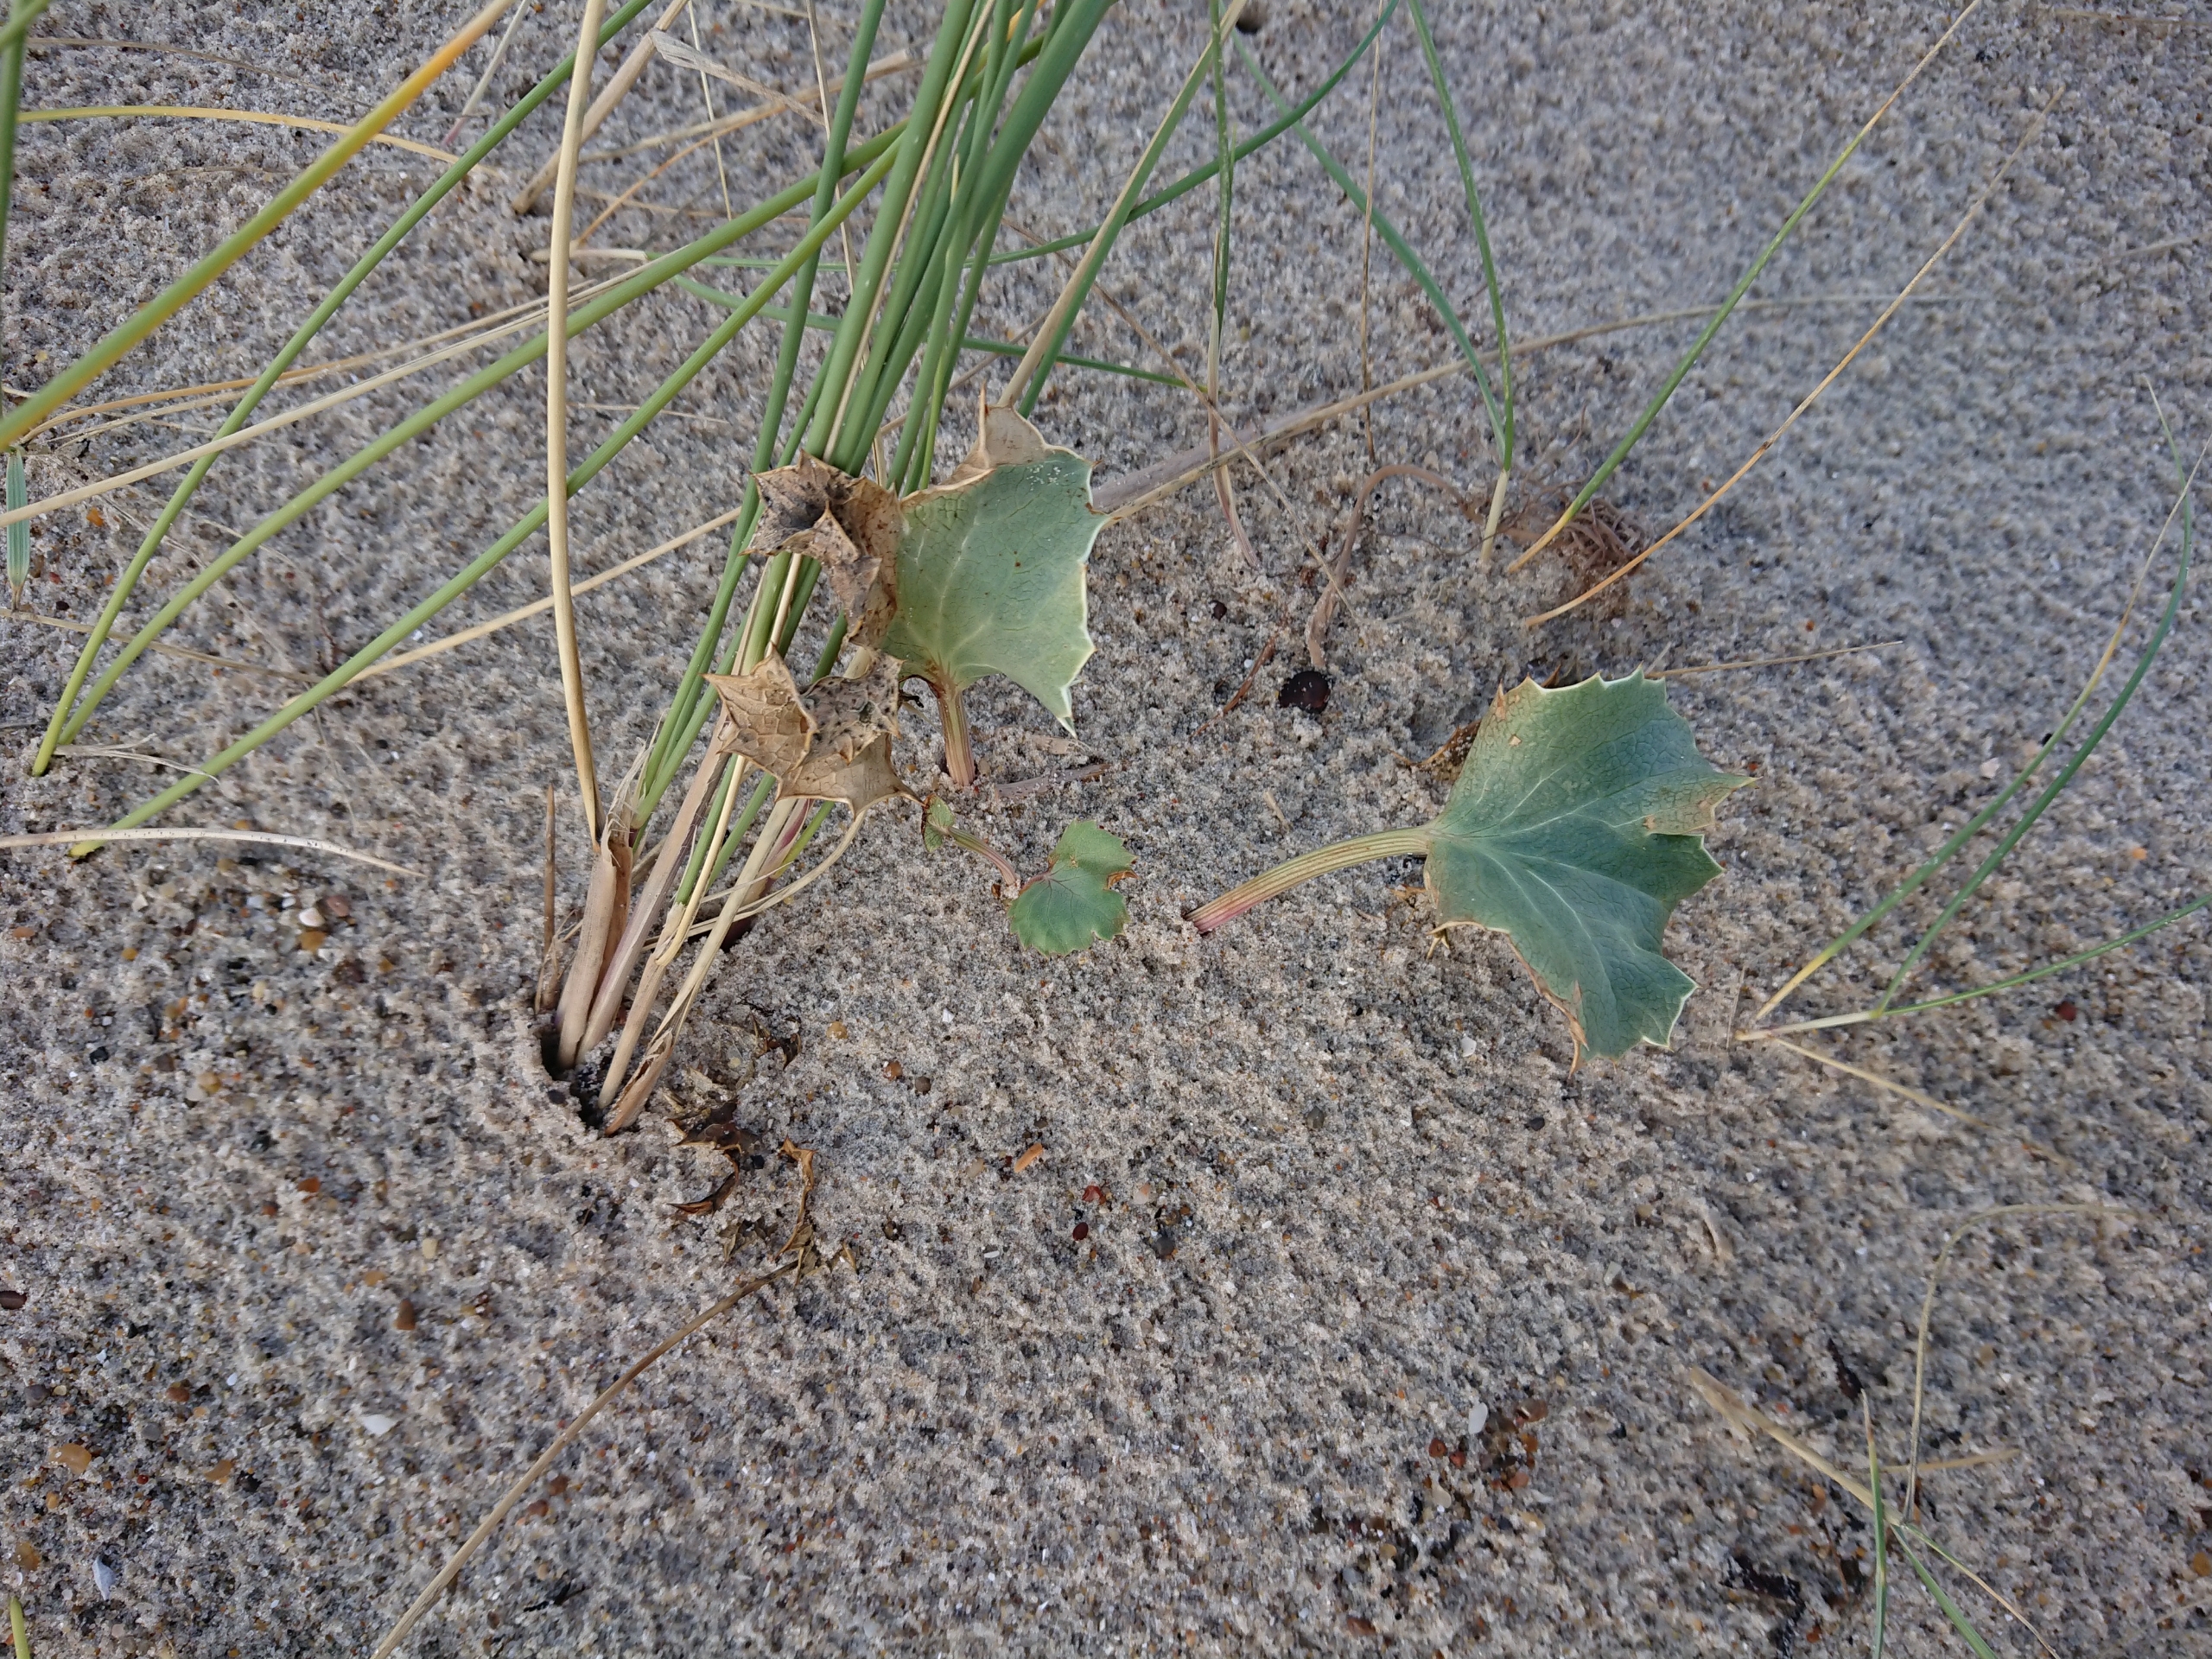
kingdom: Plantae
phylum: Tracheophyta
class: Magnoliopsida
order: Apiales
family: Apiaceae
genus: Eryngium
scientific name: Eryngium maritimum
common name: Strand-mandstro
